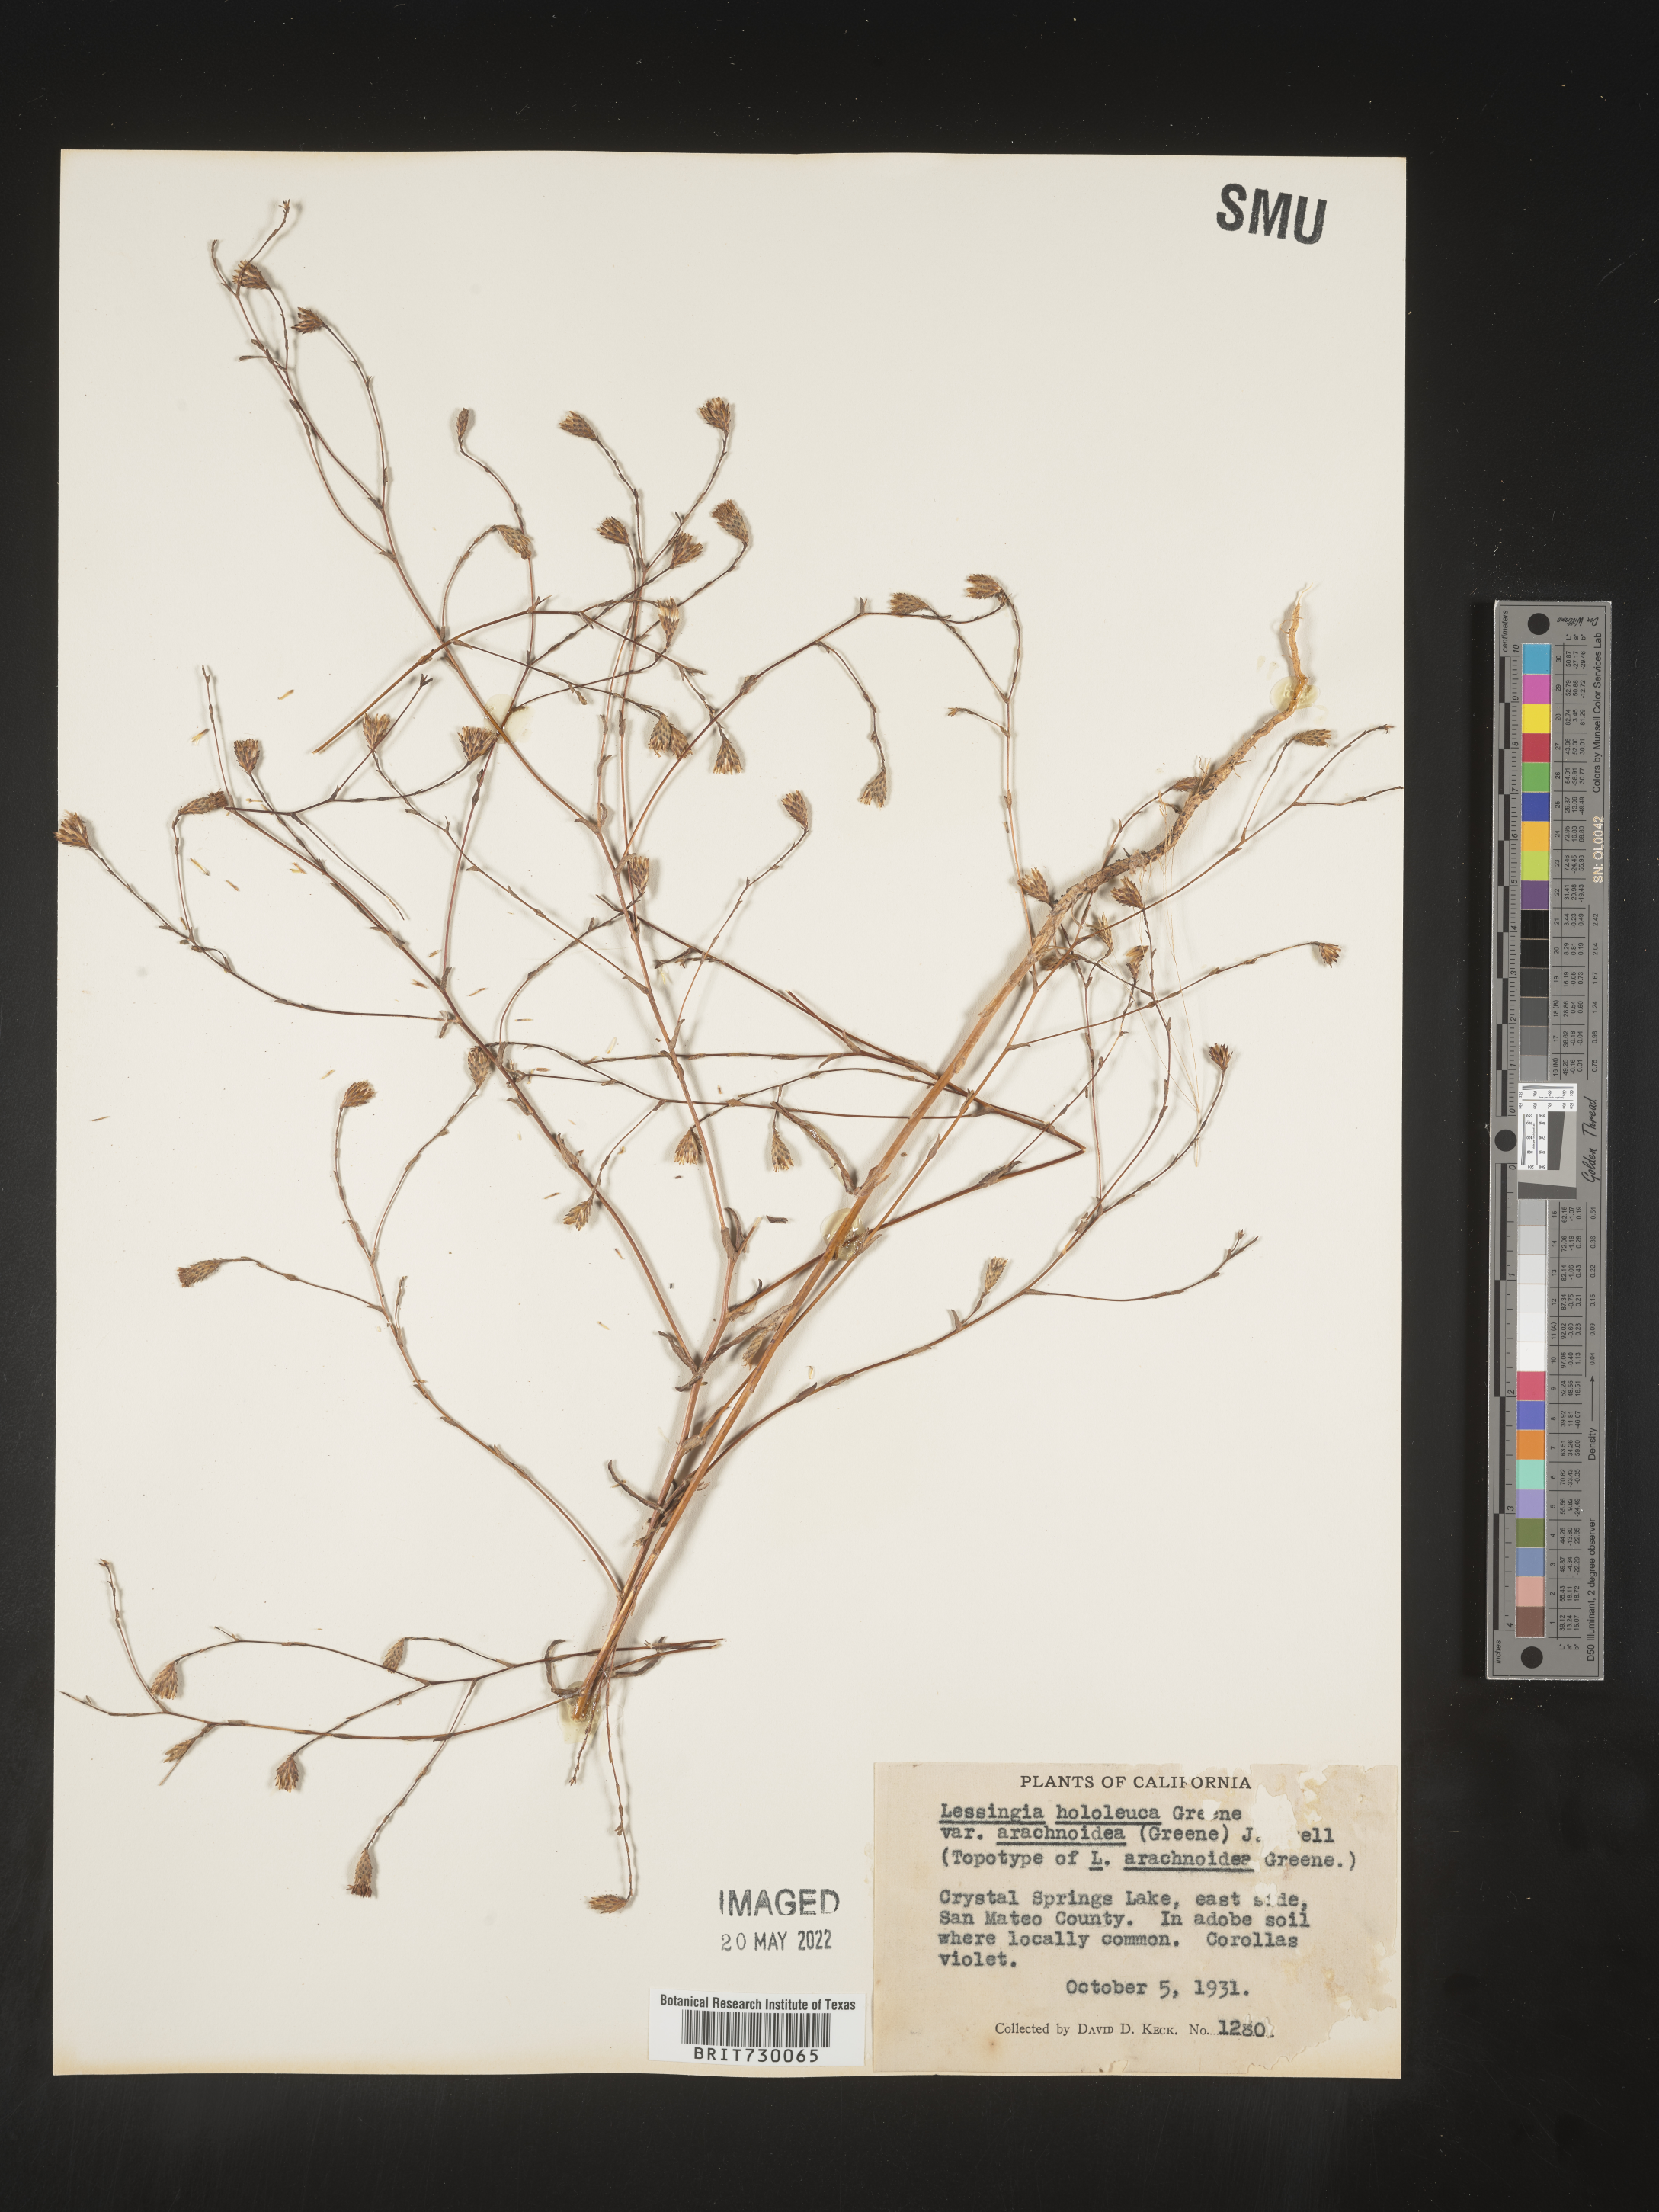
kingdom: Plantae
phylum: Tracheophyta
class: Magnoliopsida
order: Asterales
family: Asteraceae
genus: Lessingia
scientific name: Lessingia
